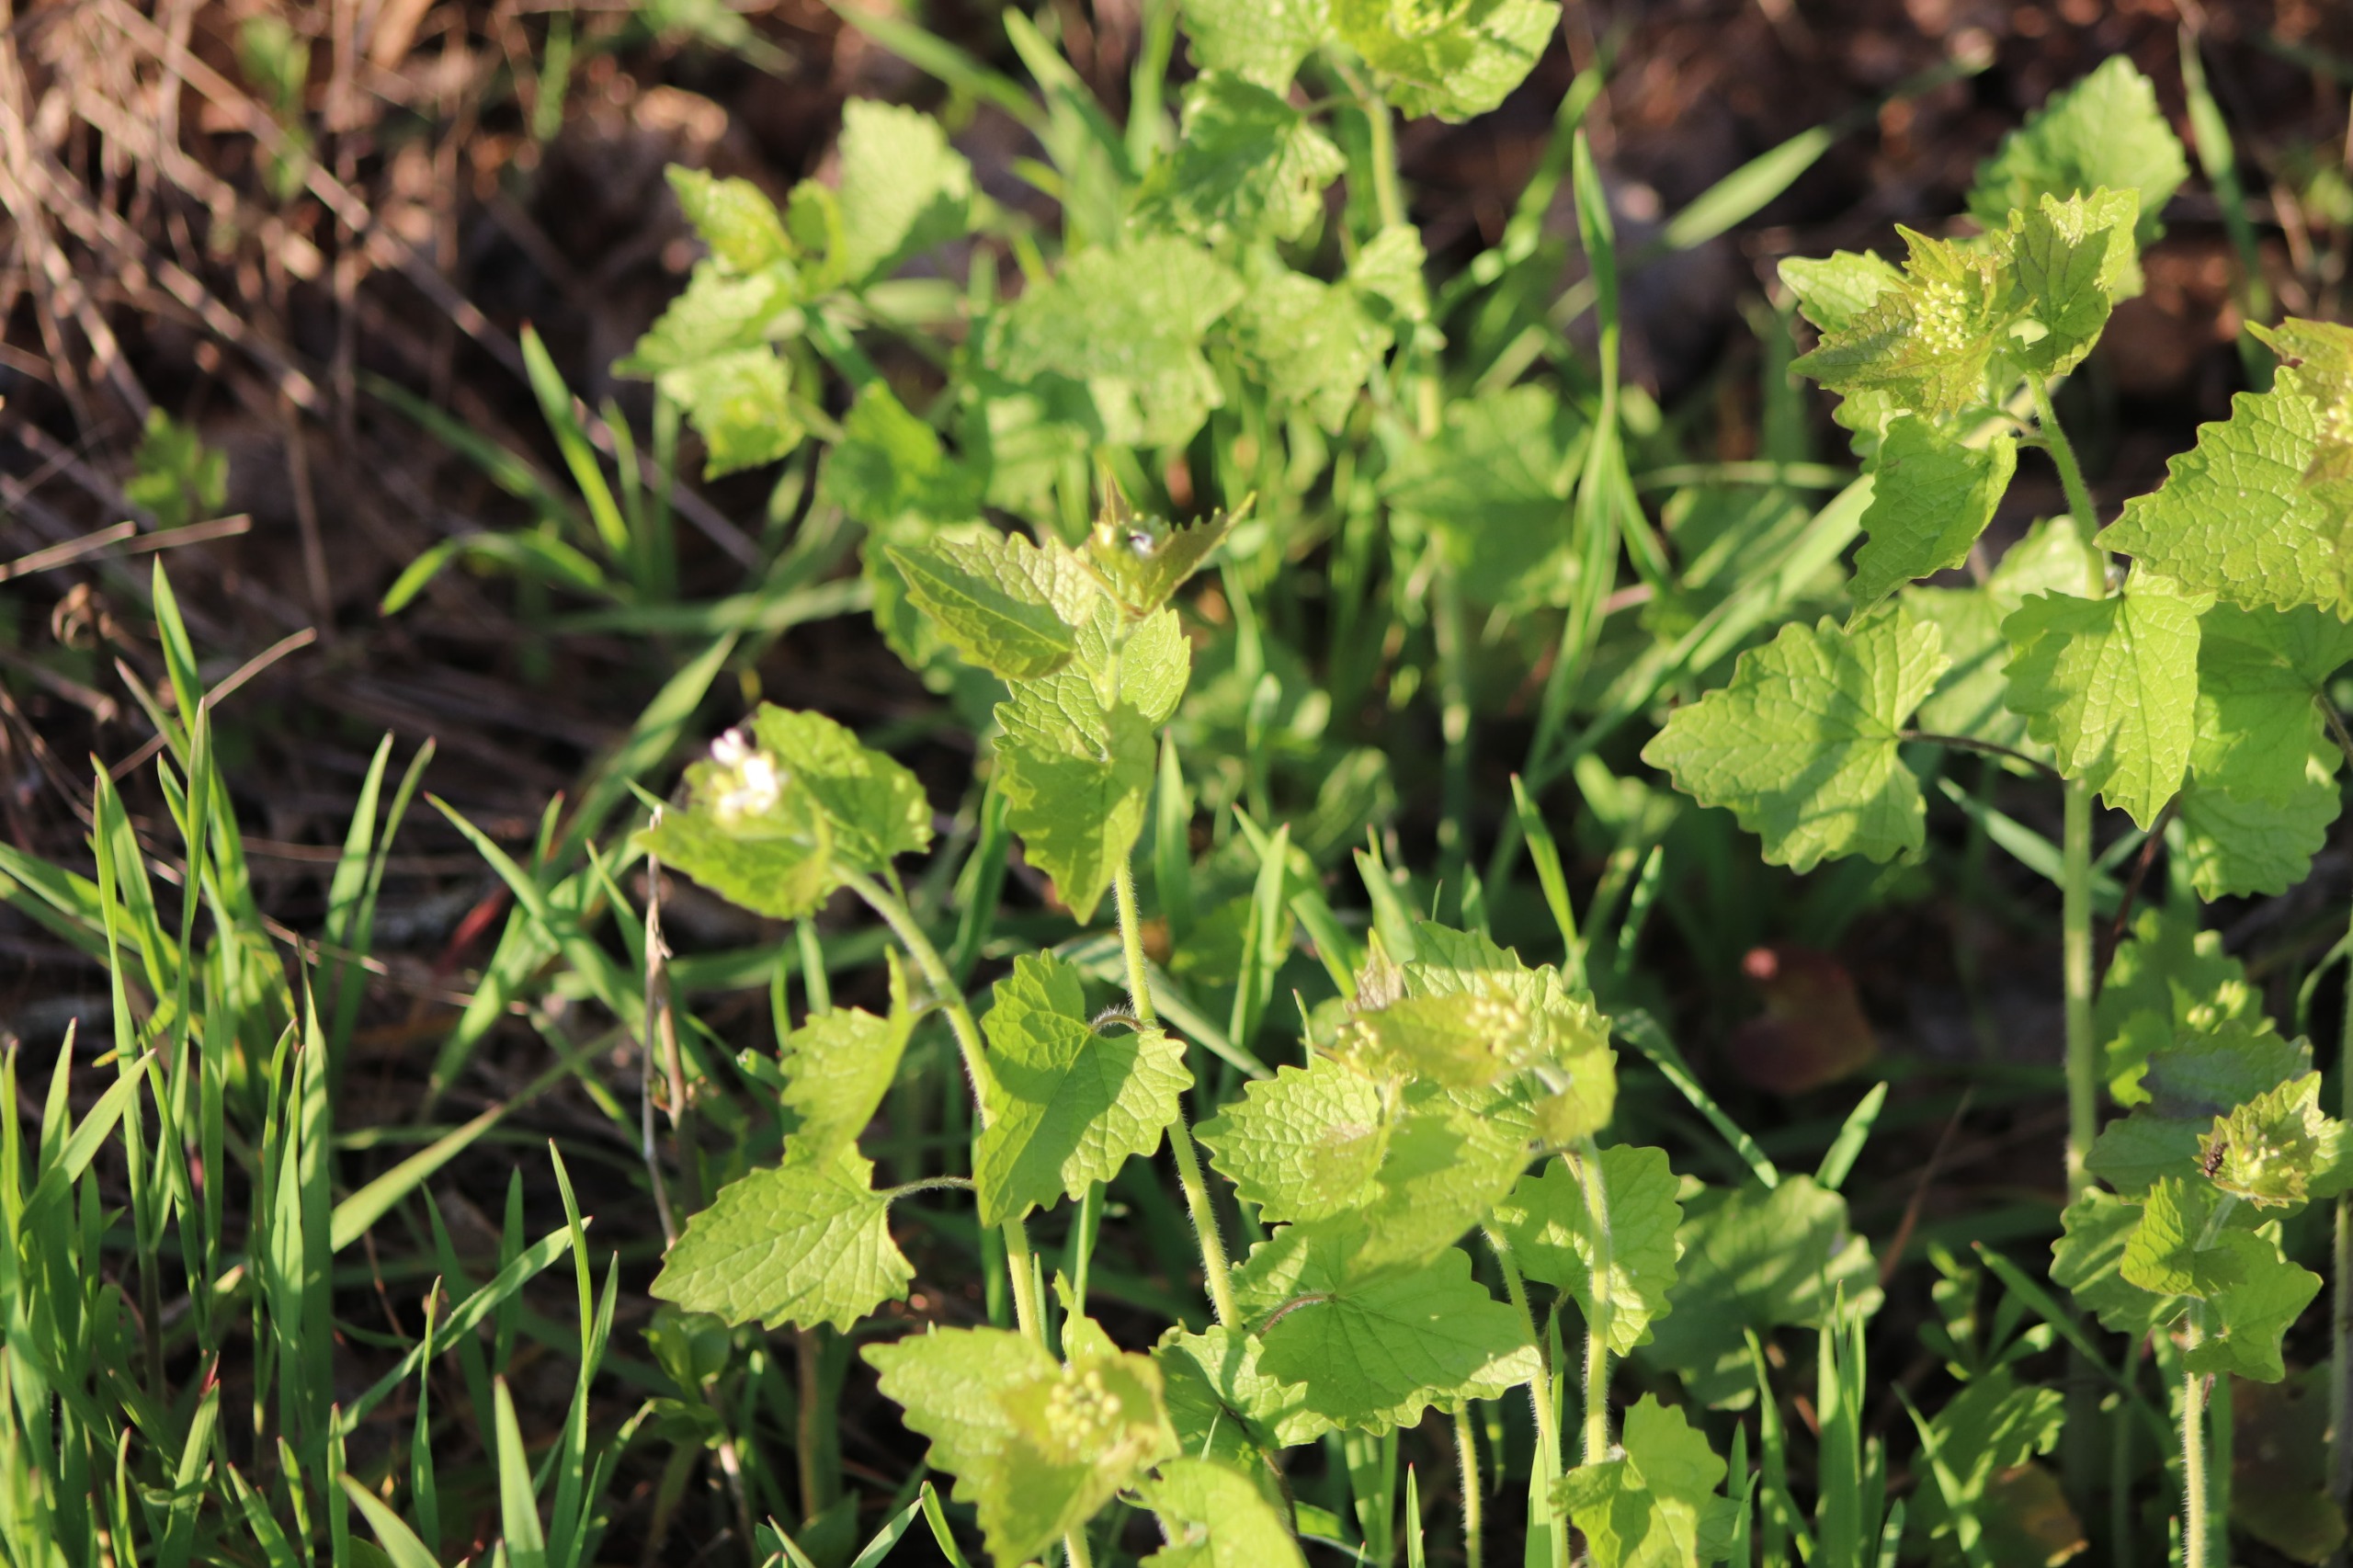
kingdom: Plantae
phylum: Tracheophyta
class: Magnoliopsida
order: Brassicales
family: Brassicaceae
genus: Alliaria
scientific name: Alliaria petiolata
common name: Løgkarse
